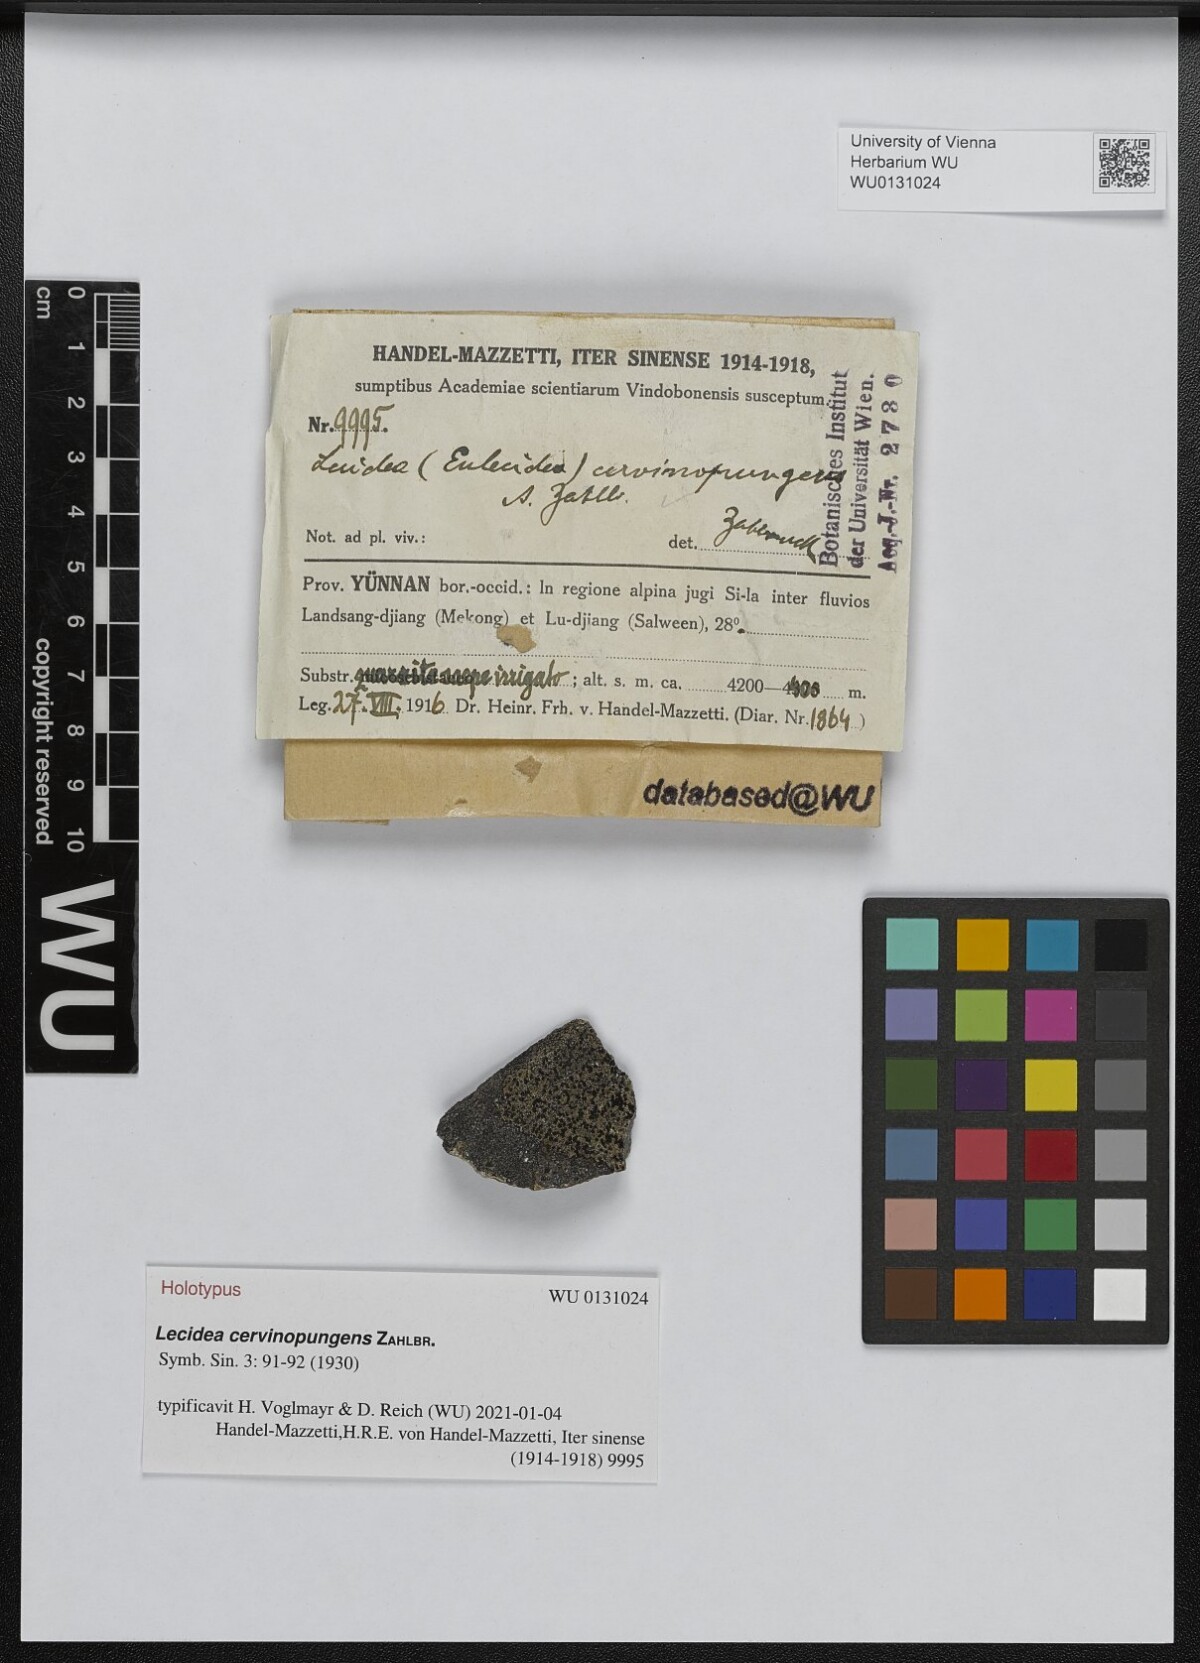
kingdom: Fungi
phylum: Ascomycota
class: Lecanoromycetes
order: Lecideales
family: Lecideaceae
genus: Lecidea
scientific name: Lecidea
